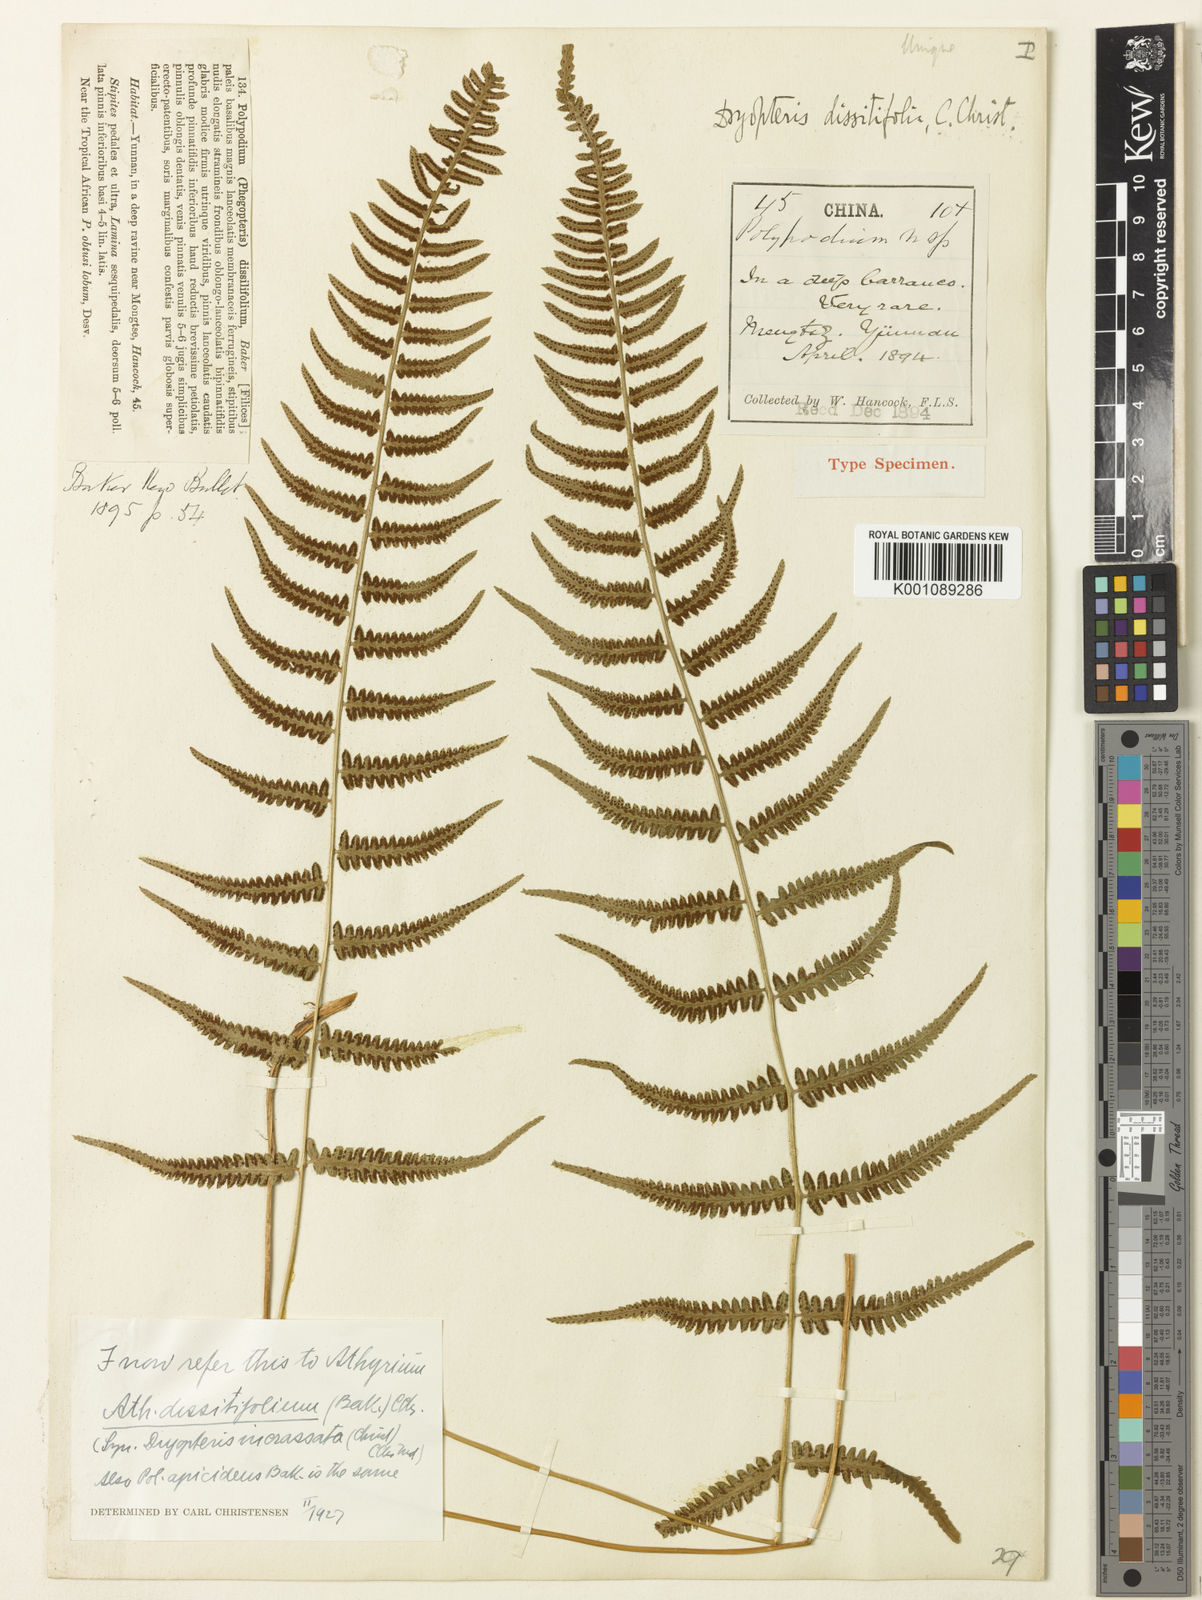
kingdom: Plantae
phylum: Tracheophyta
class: Polypodiopsida
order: Polypodiales
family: Athyriaceae
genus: Athyrium
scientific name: Athyrium dissitifolium
